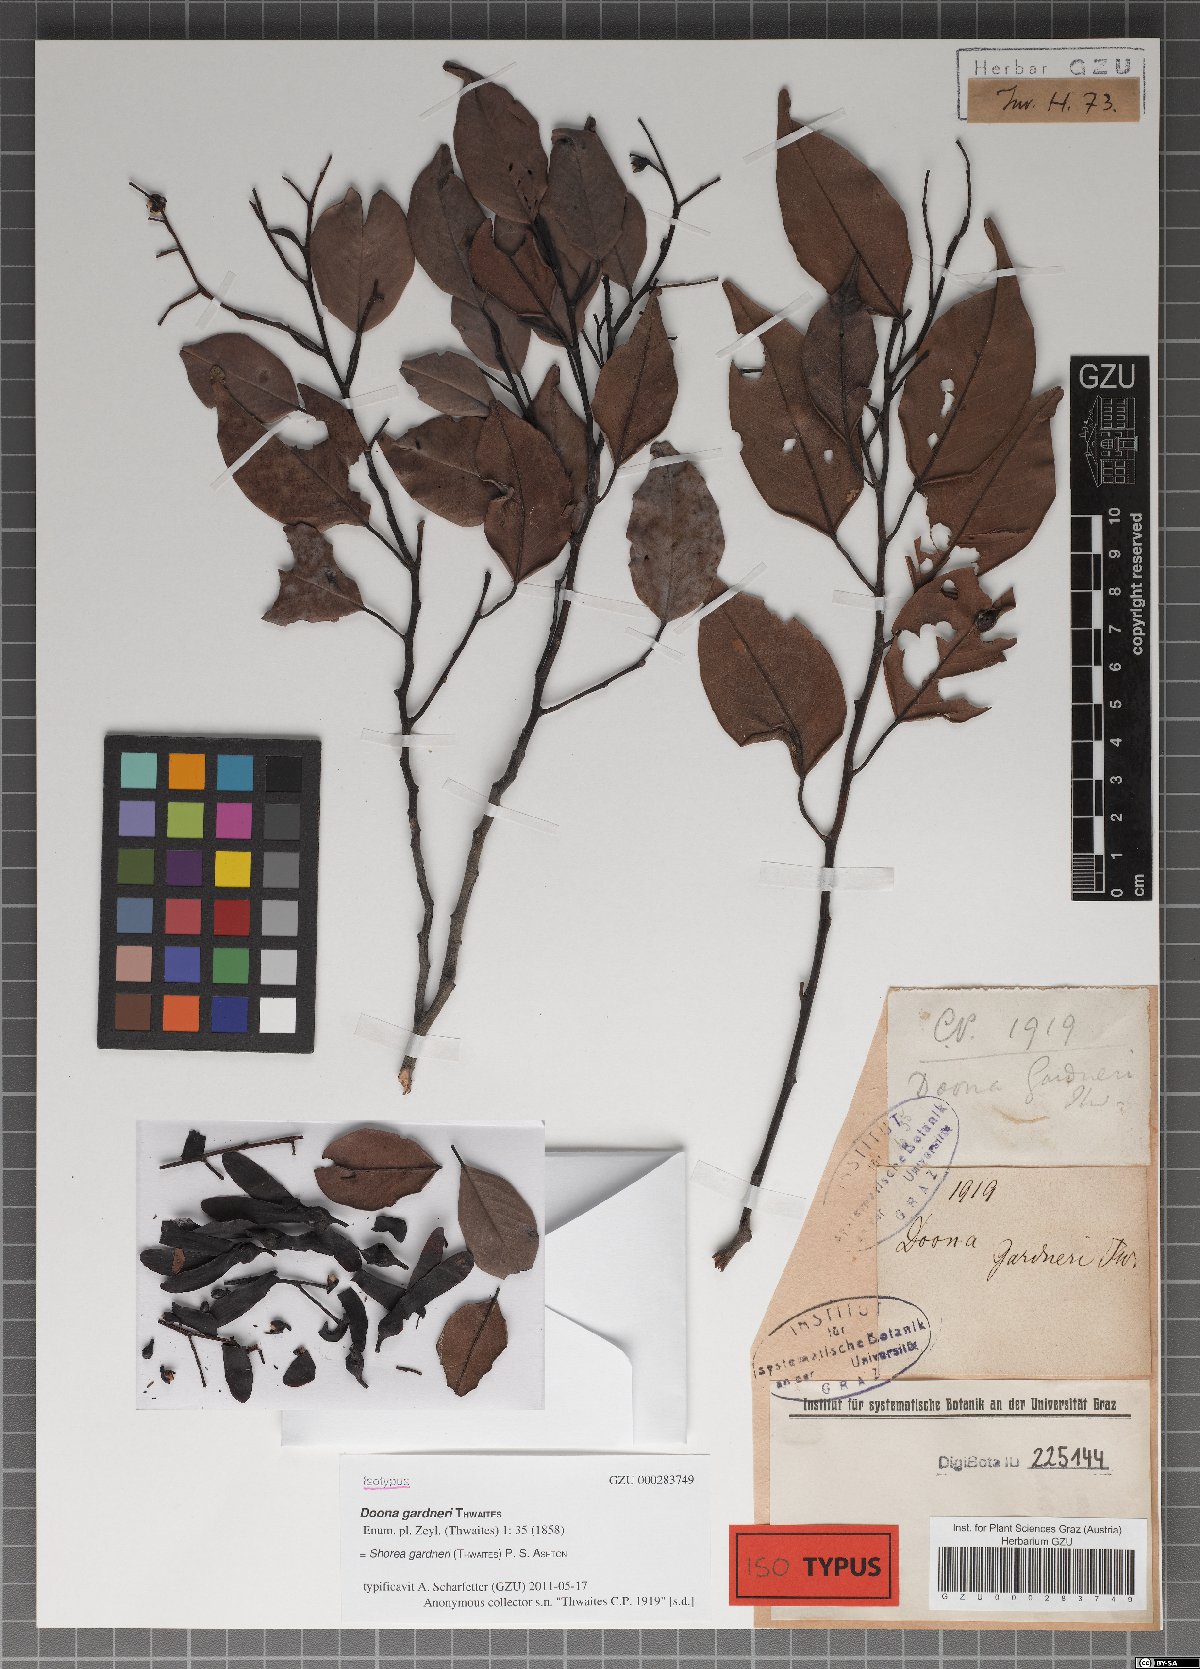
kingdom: Plantae
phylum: Tracheophyta
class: Magnoliopsida
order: Malvales
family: Dipterocarpaceae
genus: Doona
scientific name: Doona gardneri
